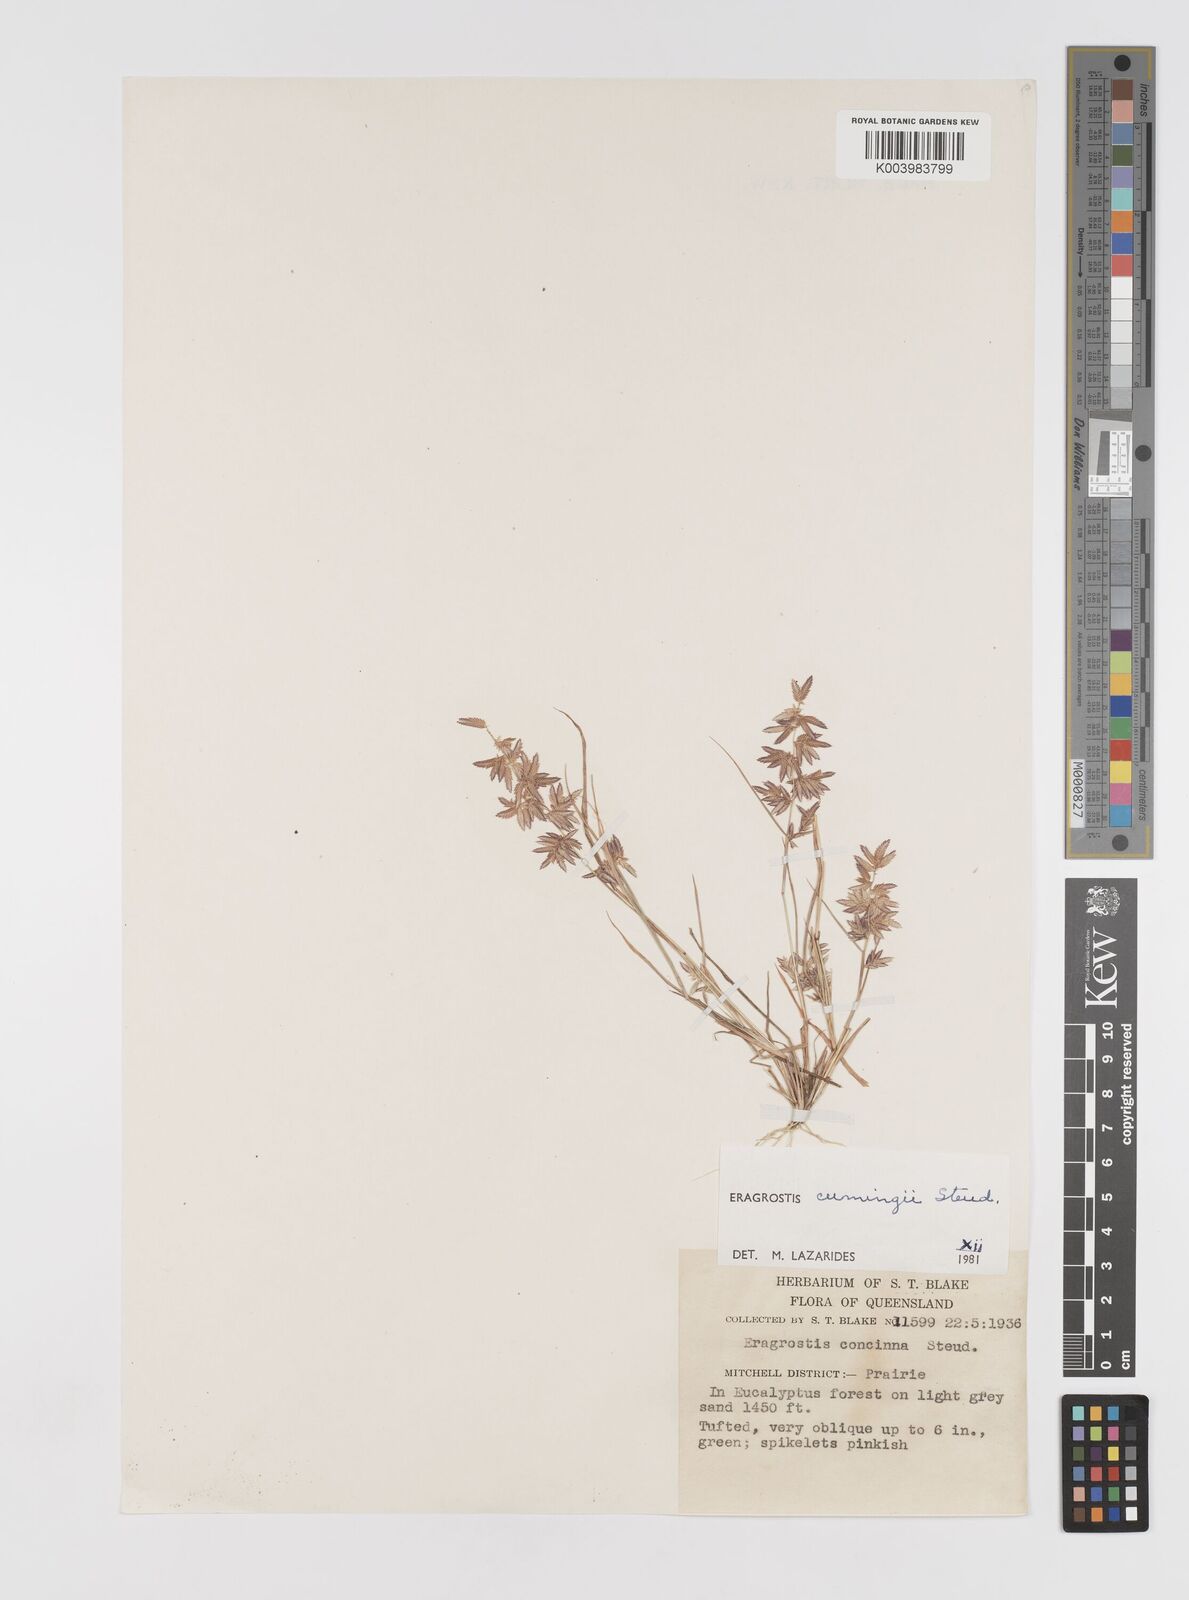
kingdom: Plantae
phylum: Tracheophyta
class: Liliopsida
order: Poales
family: Poaceae
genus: Eragrostis
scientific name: Eragrostis cumingii
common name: Cuming's lovegrass
